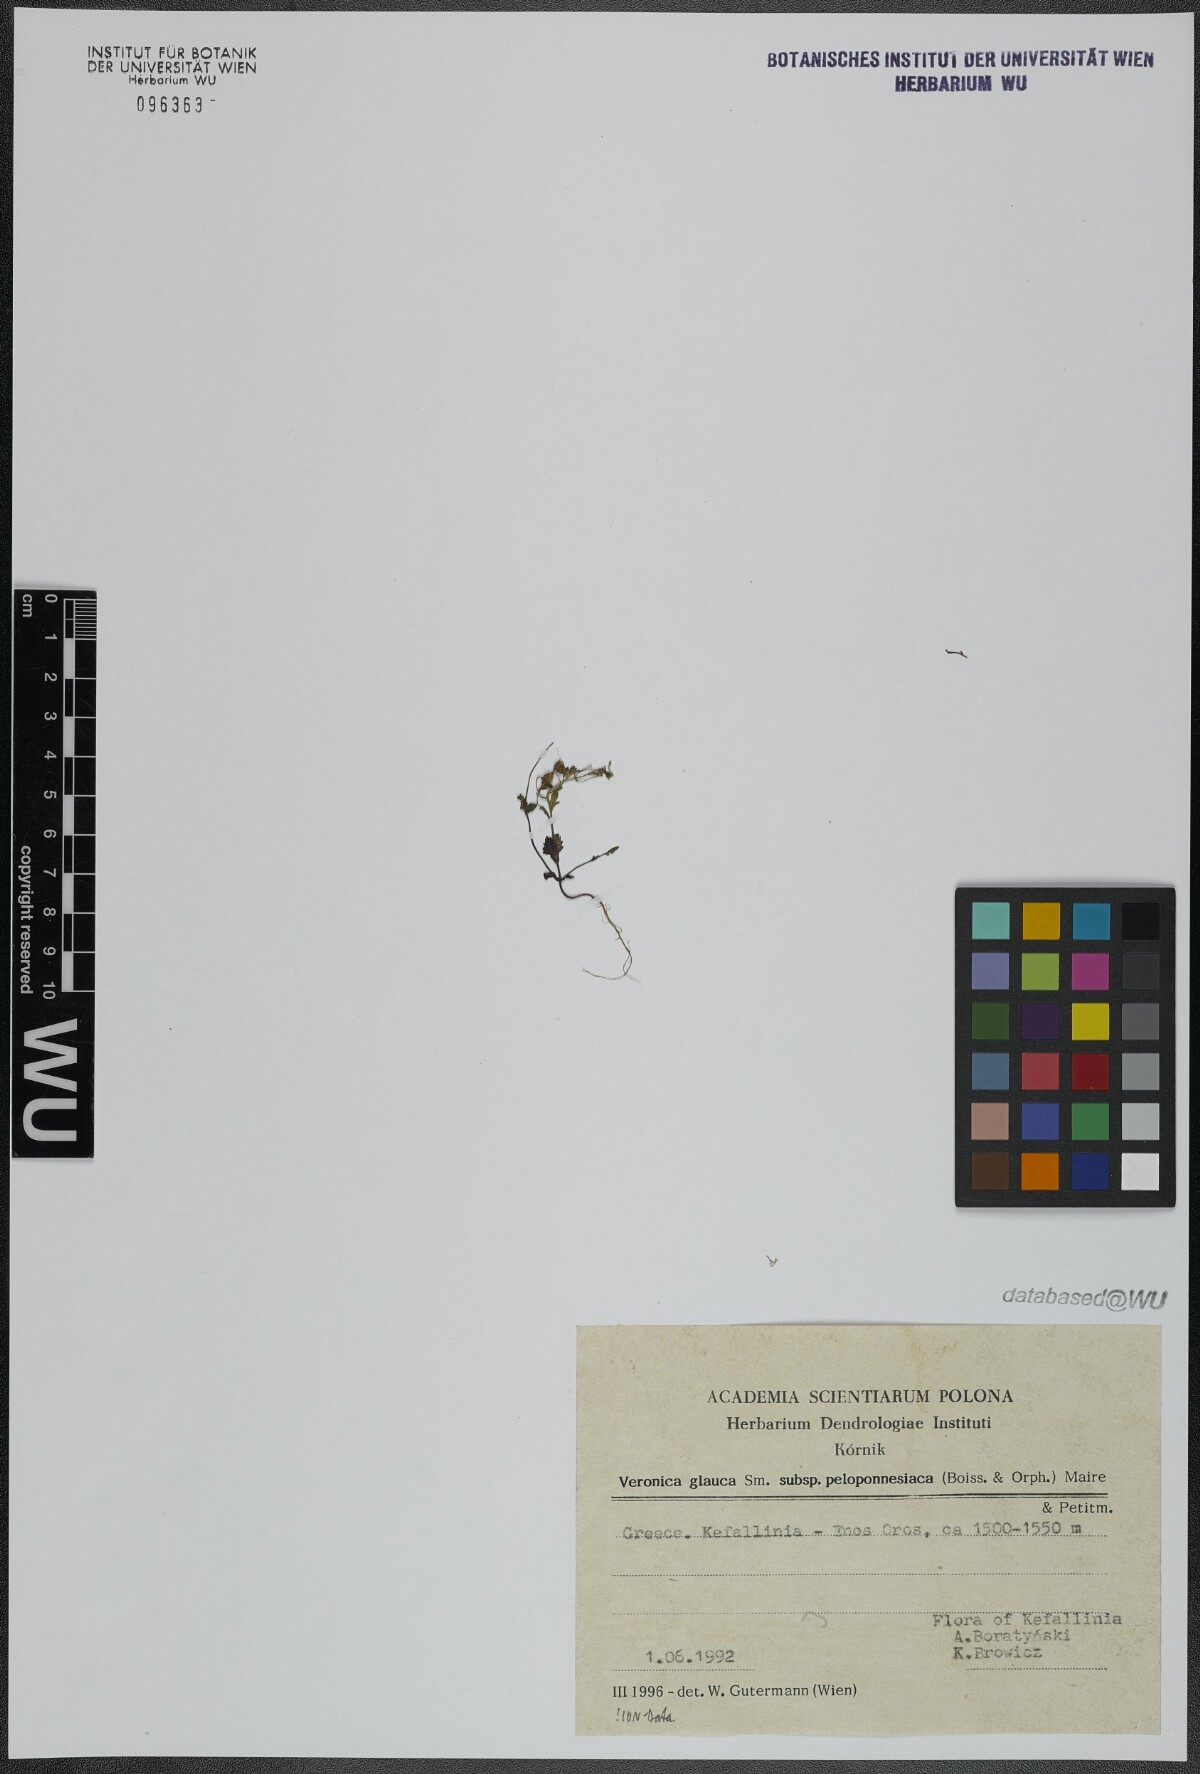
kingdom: Plantae
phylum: Tracheophyta
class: Magnoliopsida
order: Lamiales
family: Plantaginaceae
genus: Veronica
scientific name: Veronica glauca
